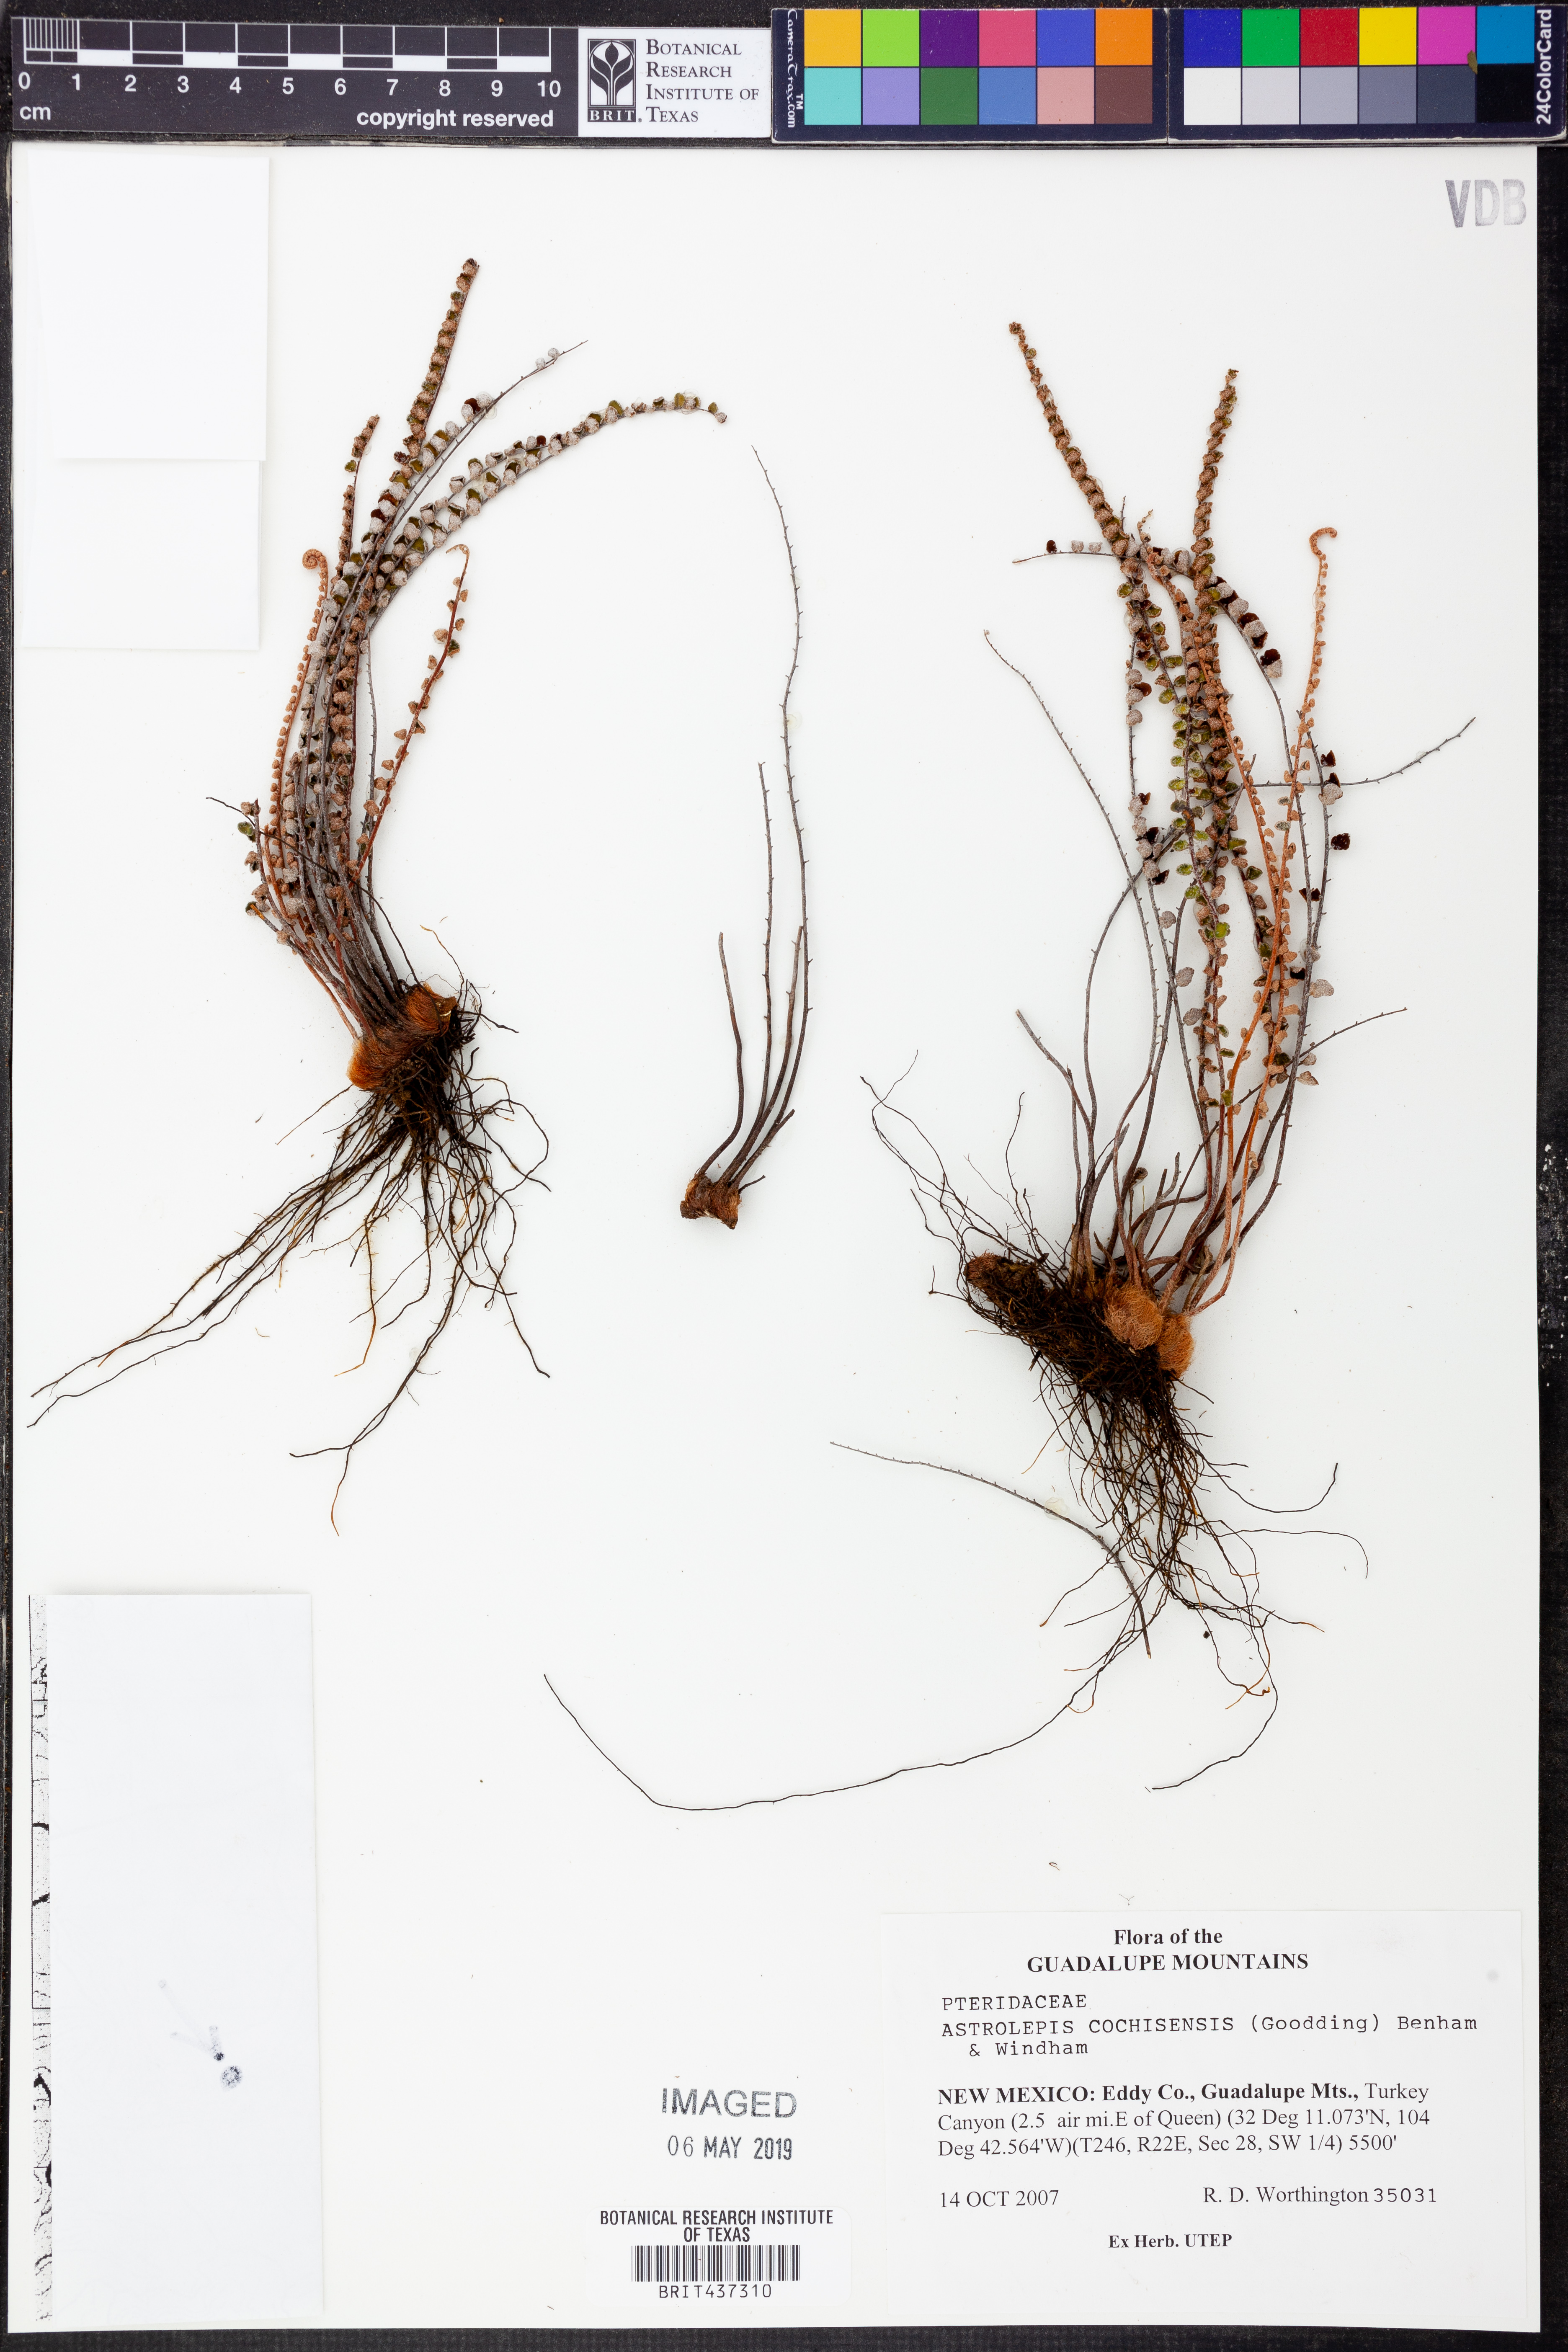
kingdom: Plantae
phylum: Tracheophyta
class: Polypodiopsida
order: Polypodiales
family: Pteridaceae
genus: Astrolepis
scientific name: Astrolepis cochisensis
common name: Scaly cloak fern
